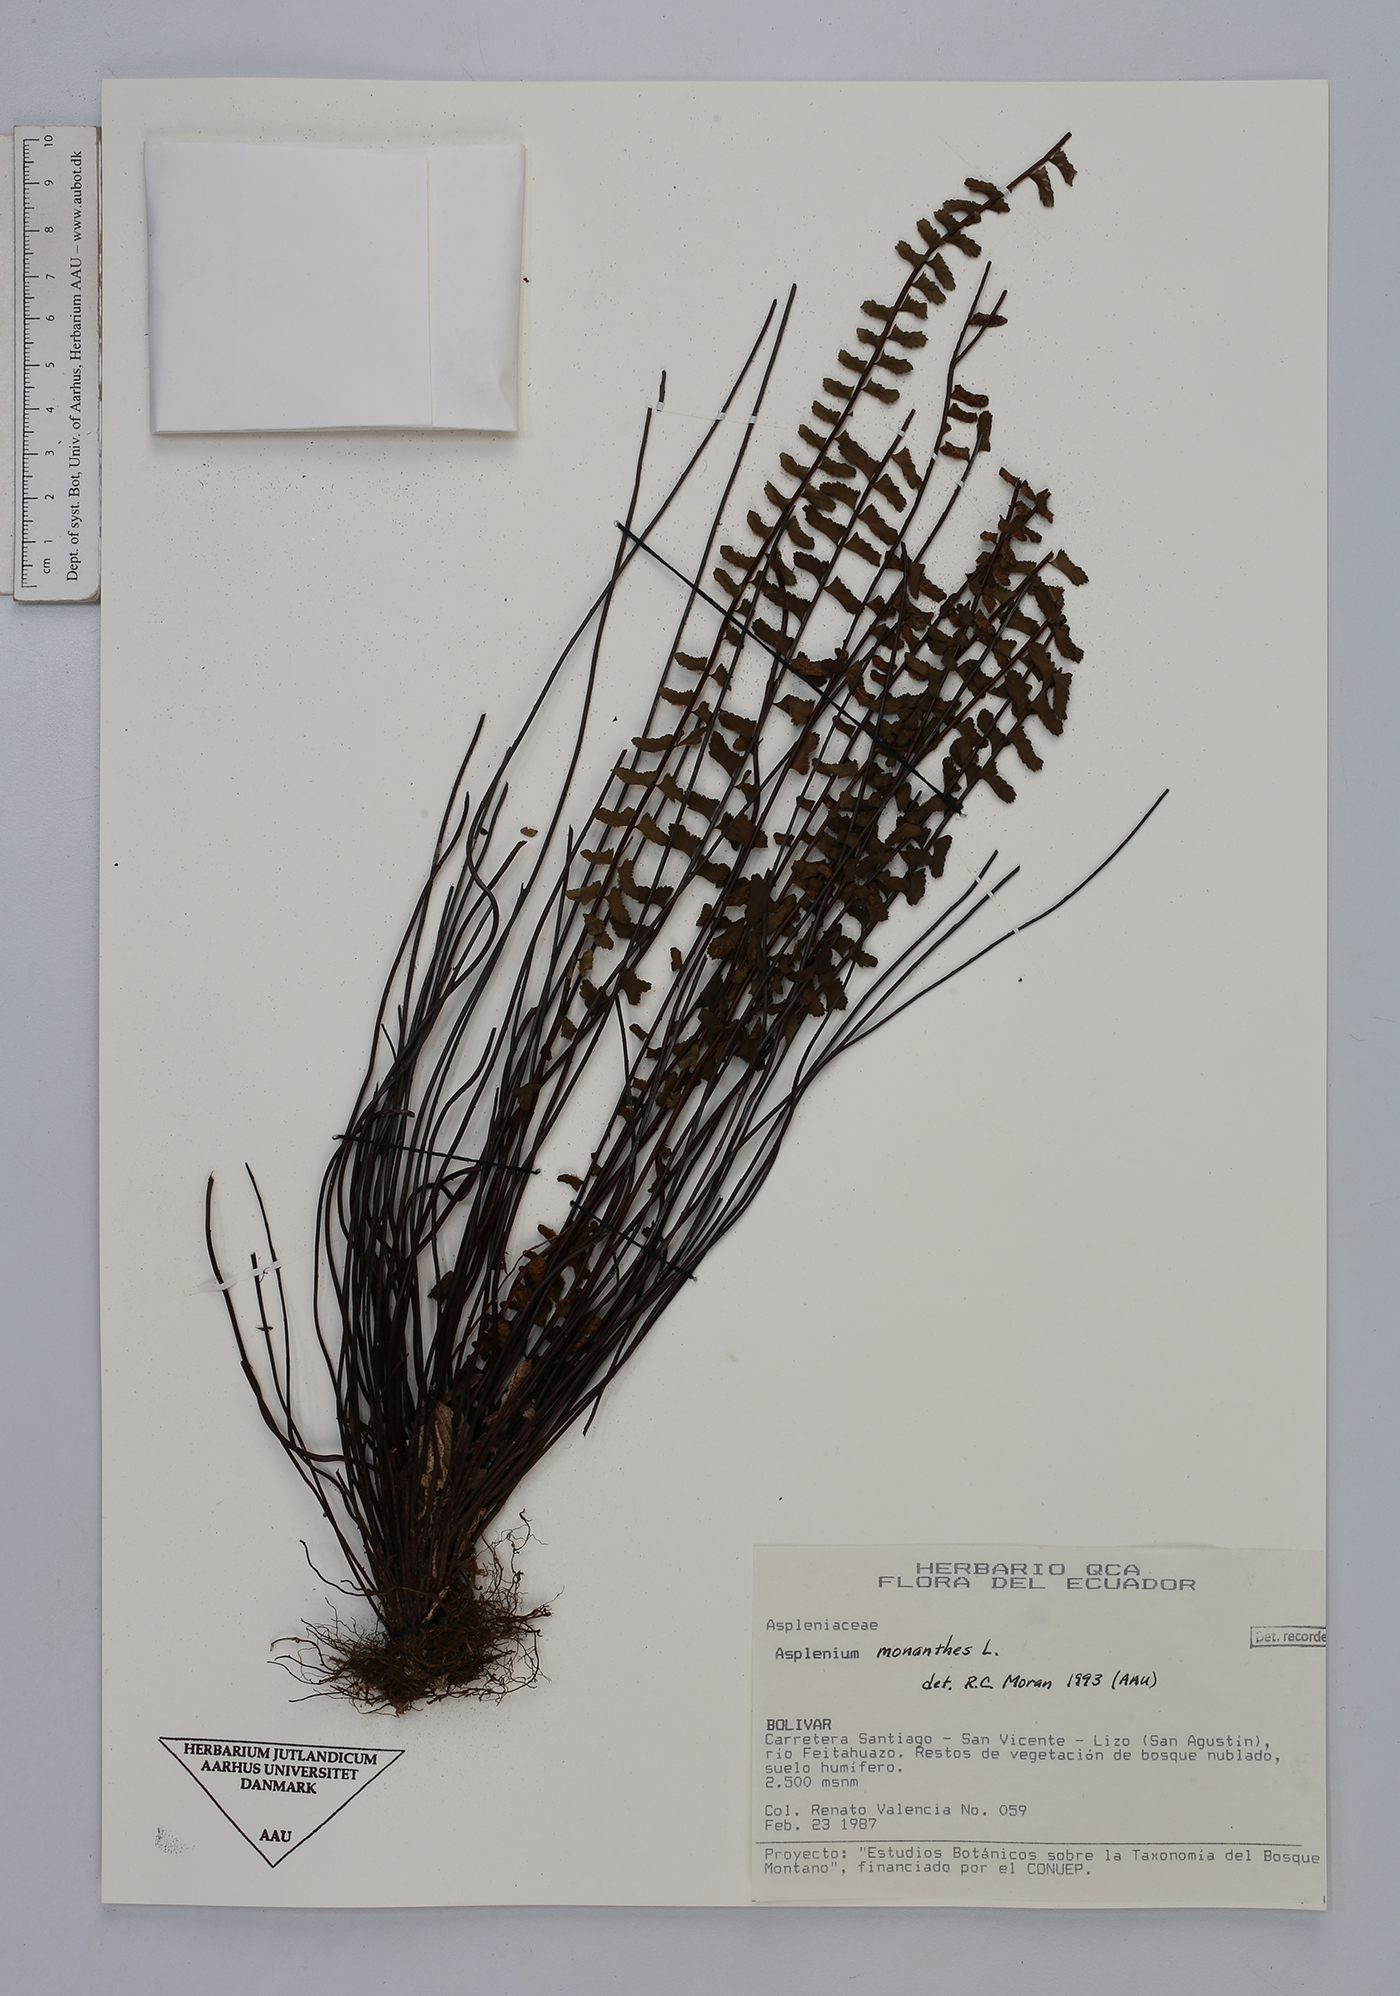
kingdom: Plantae
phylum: Tracheophyta
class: Polypodiopsida
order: Polypodiales
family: Aspleniaceae
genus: Asplenium
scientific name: Asplenium monanthes
